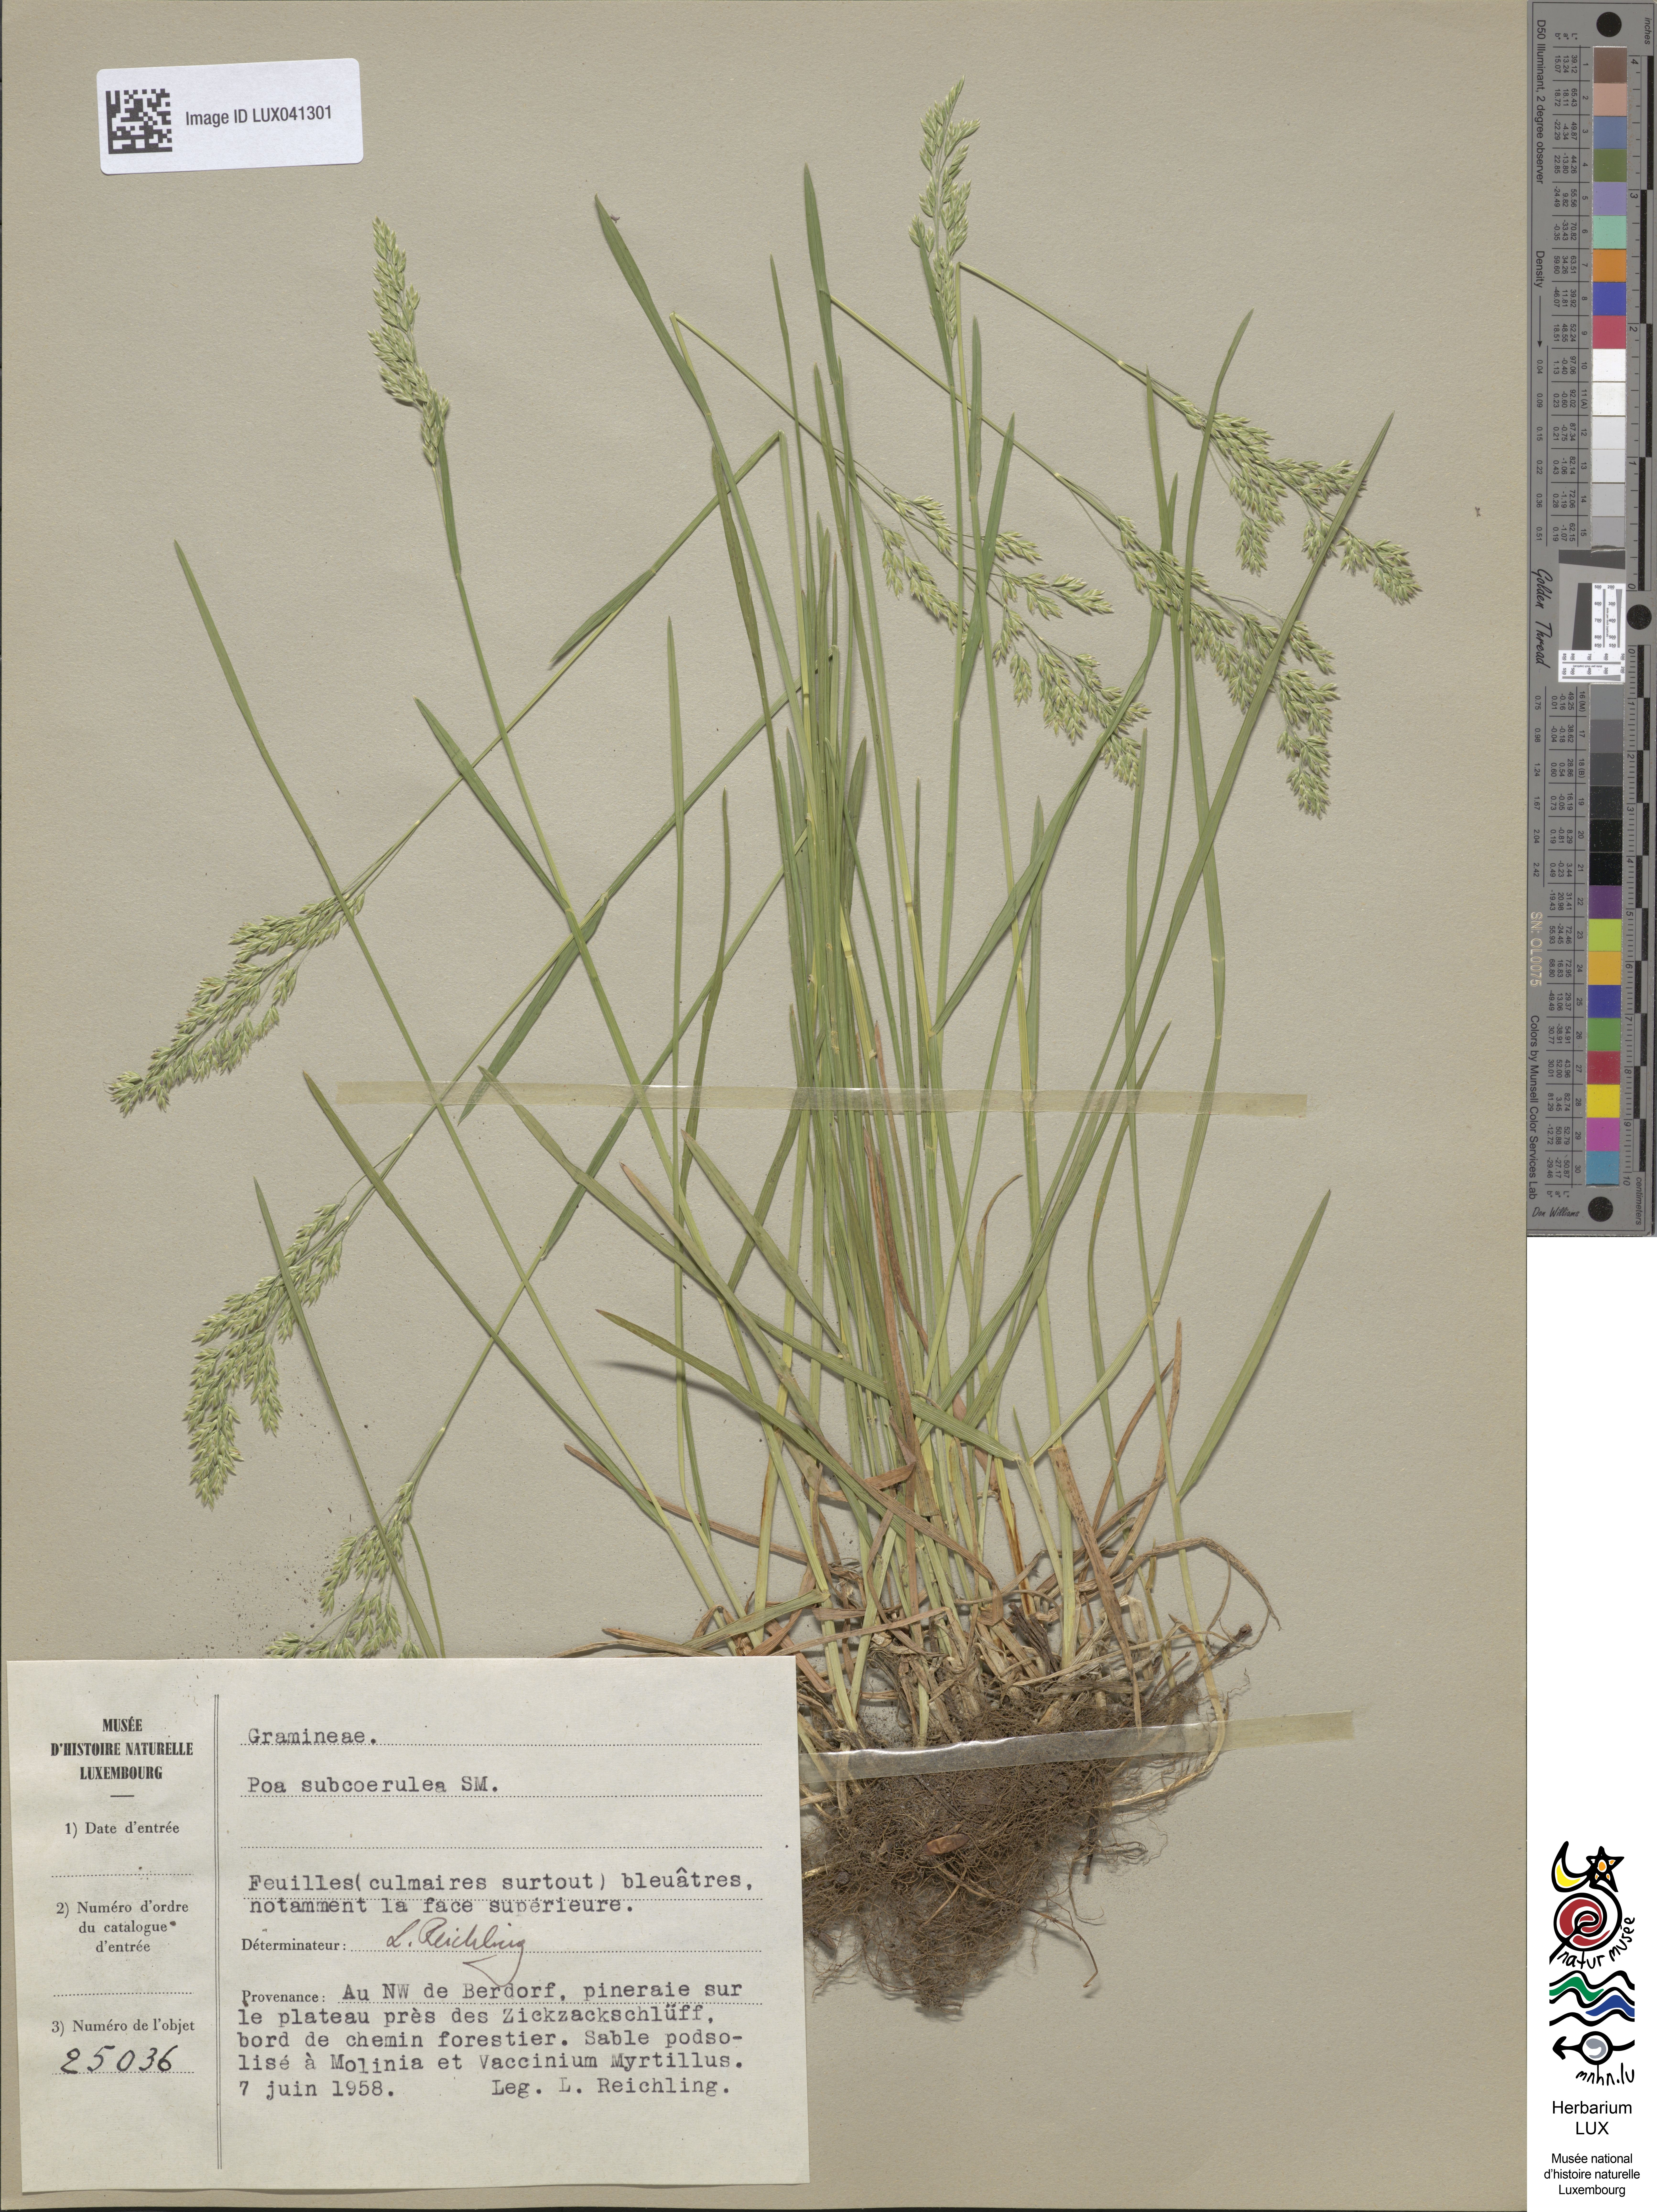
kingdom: Plantae
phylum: Tracheophyta
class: Liliopsida
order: Poales
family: Poaceae
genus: Poa
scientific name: Poa humilis
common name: Spreading meadow-grass
